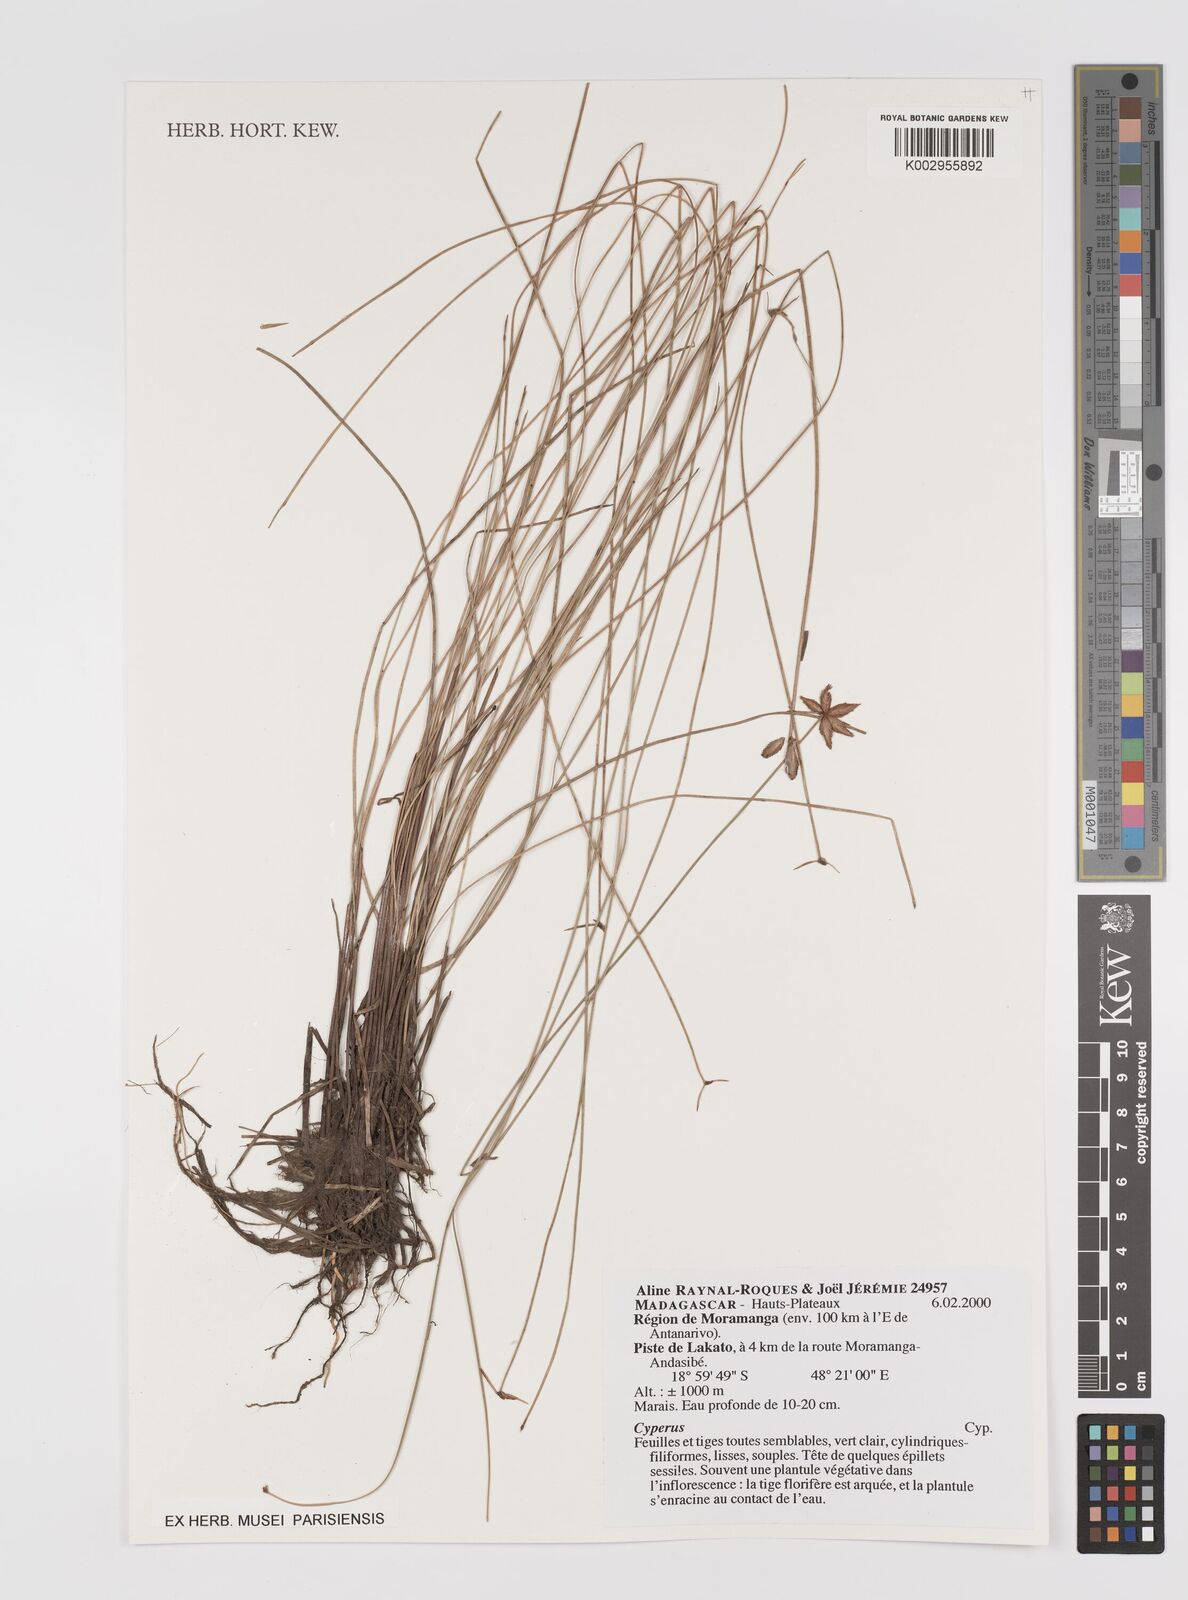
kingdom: Plantae
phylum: Tracheophyta
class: Liliopsida
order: Poales
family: Cyperaceae
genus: Cyperus
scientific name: Cyperus
